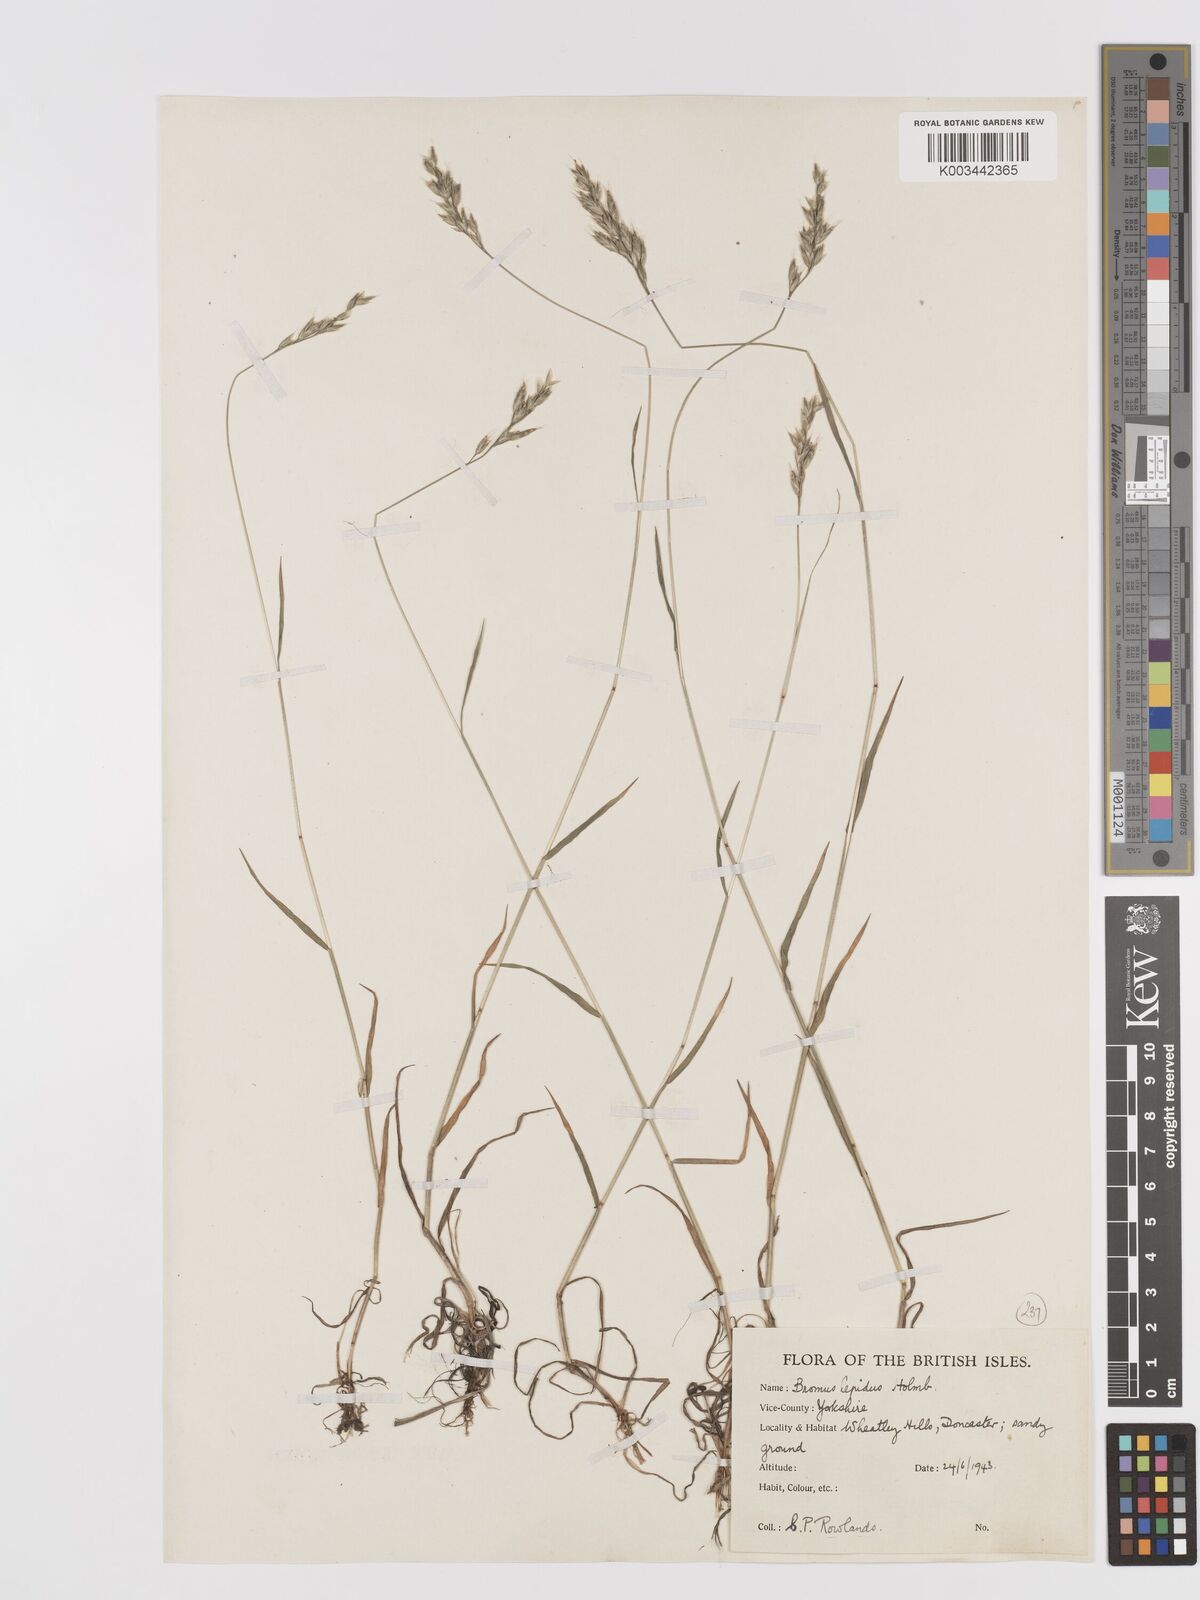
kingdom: Plantae
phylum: Tracheophyta
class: Liliopsida
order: Poales
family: Poaceae
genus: Bromus
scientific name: Bromus lepidus
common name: Slender soft-brome
